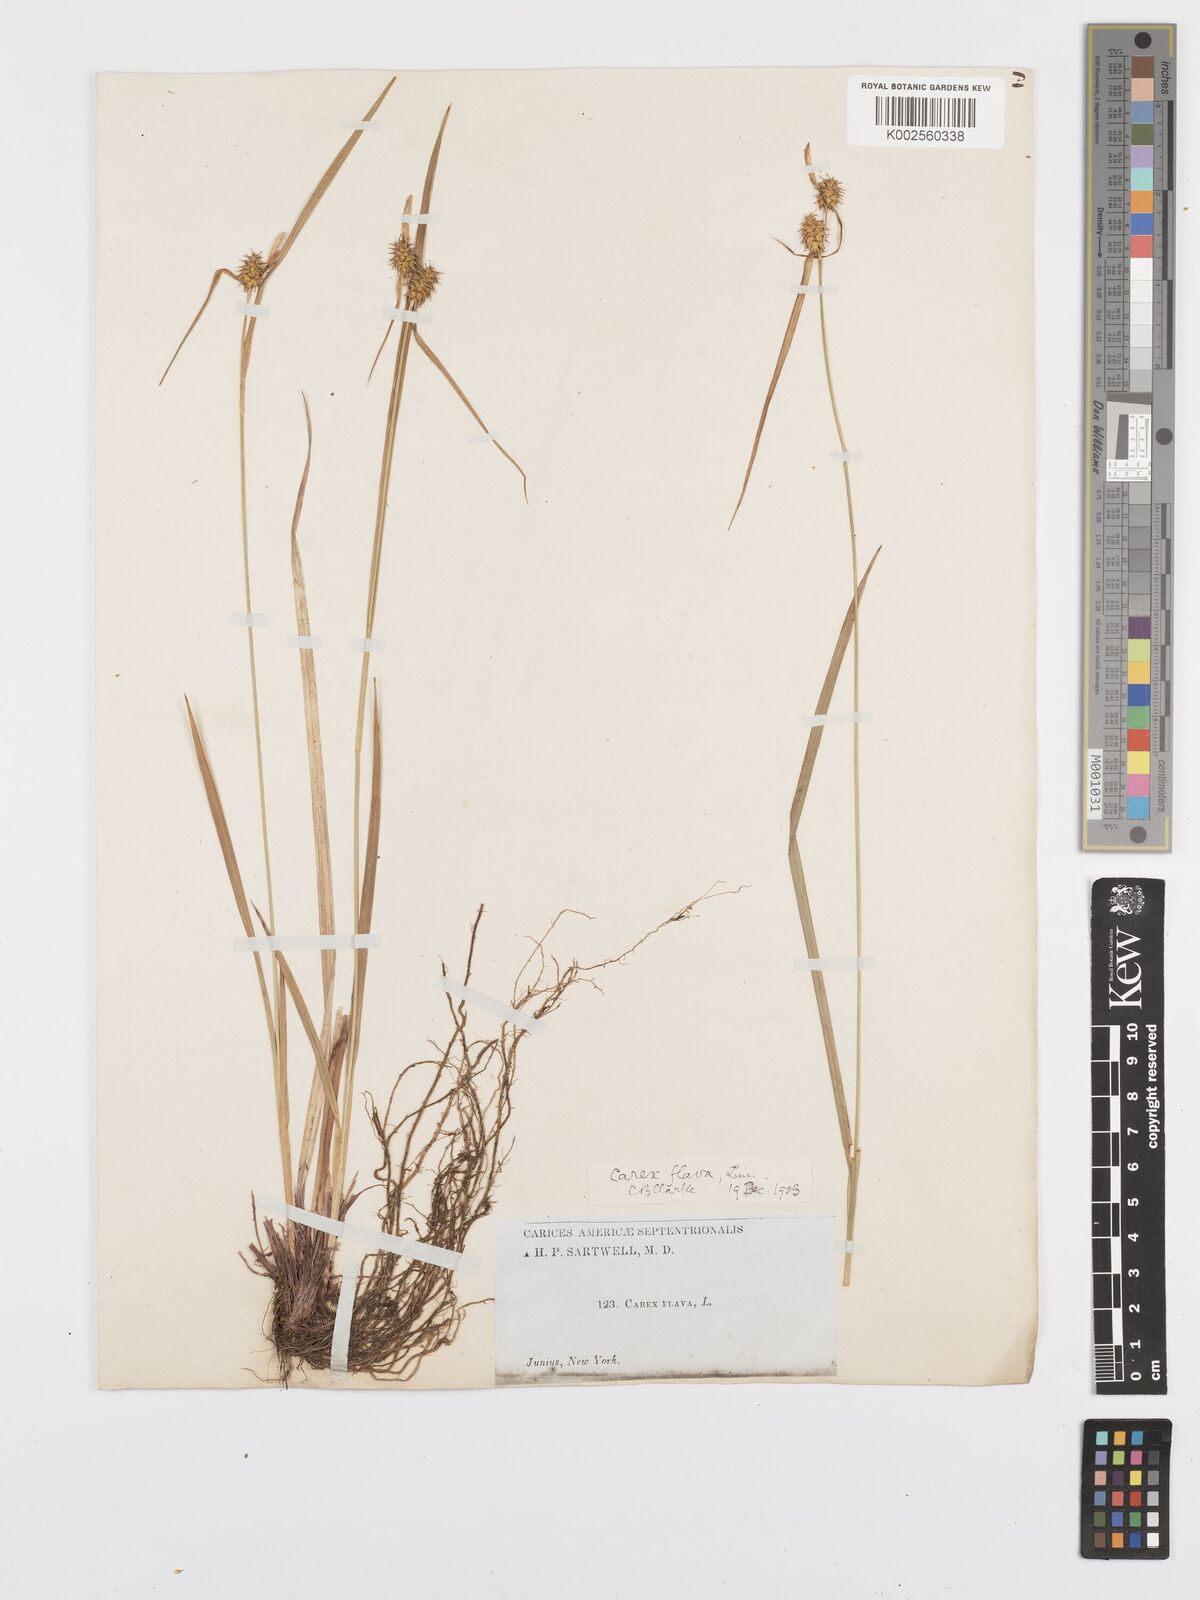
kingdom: Plantae
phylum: Tracheophyta
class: Liliopsida
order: Poales
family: Cyperaceae
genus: Carex
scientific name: Carex flava
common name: Large yellow-sedge
